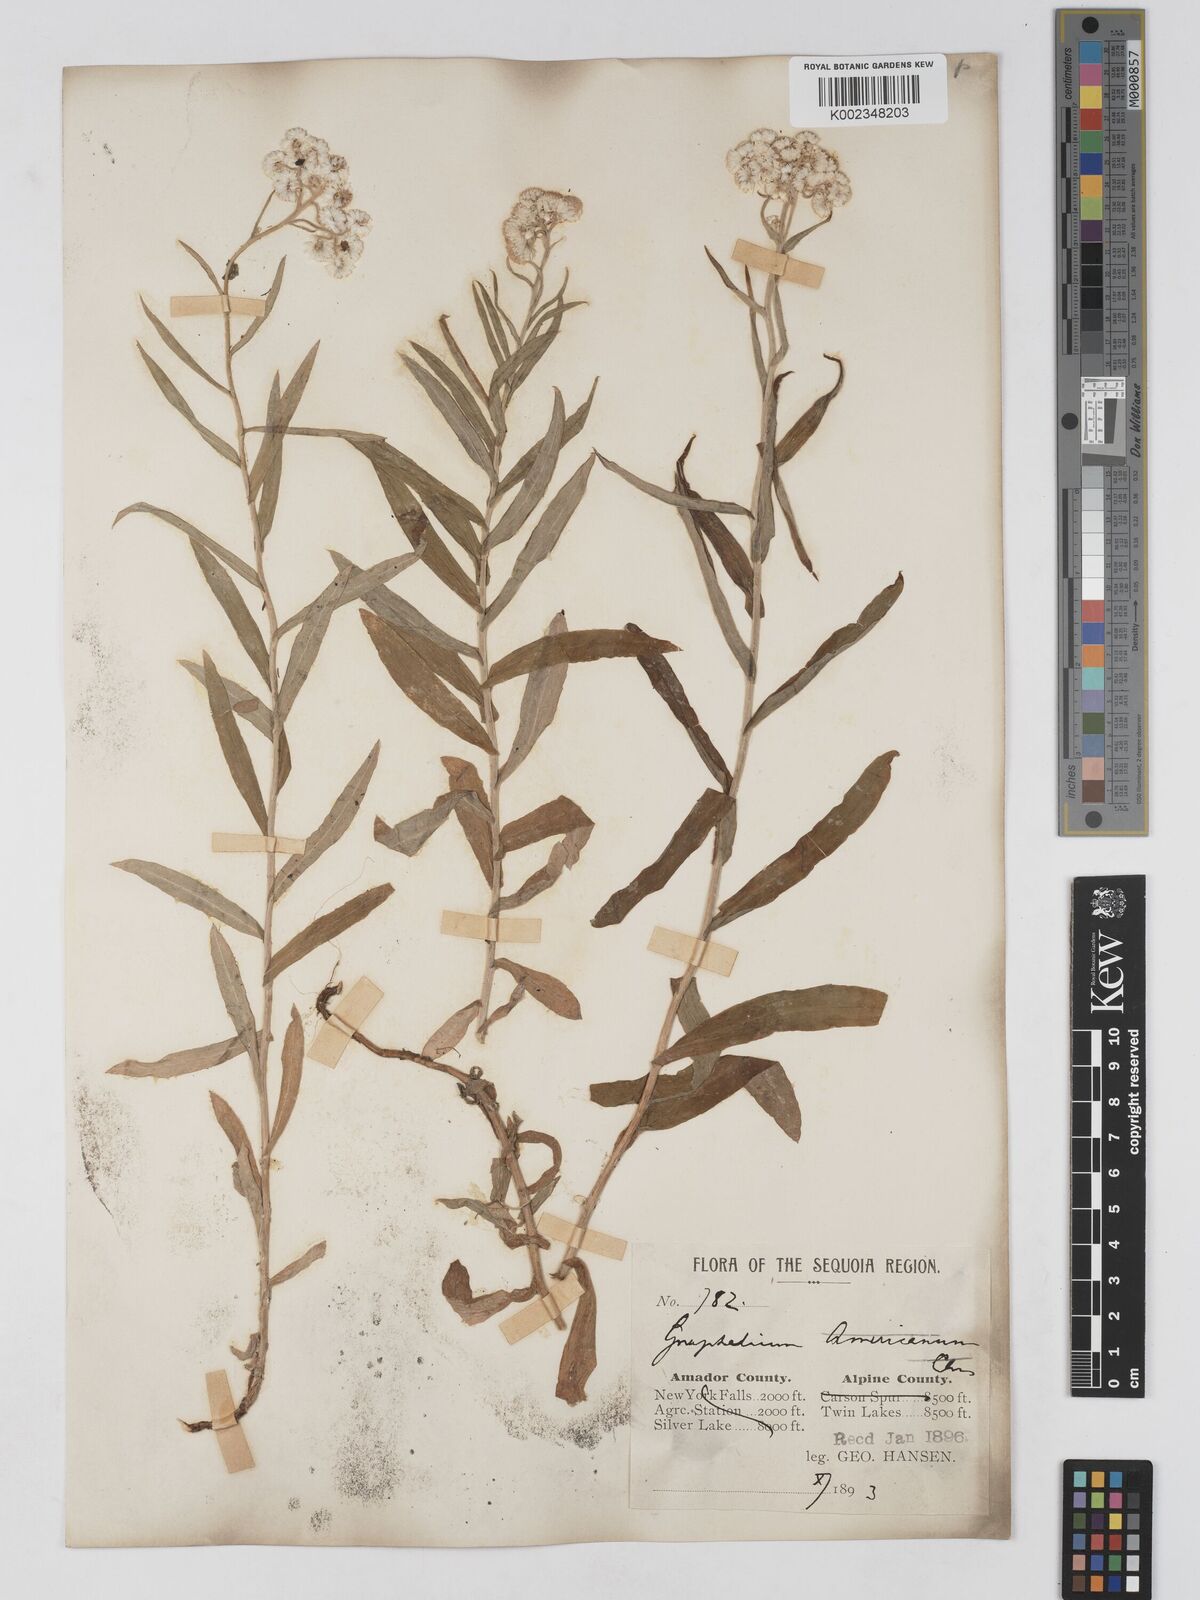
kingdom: Plantae
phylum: Tracheophyta
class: Magnoliopsida
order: Asterales
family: Asteraceae
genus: Anaphalis
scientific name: Anaphalis
